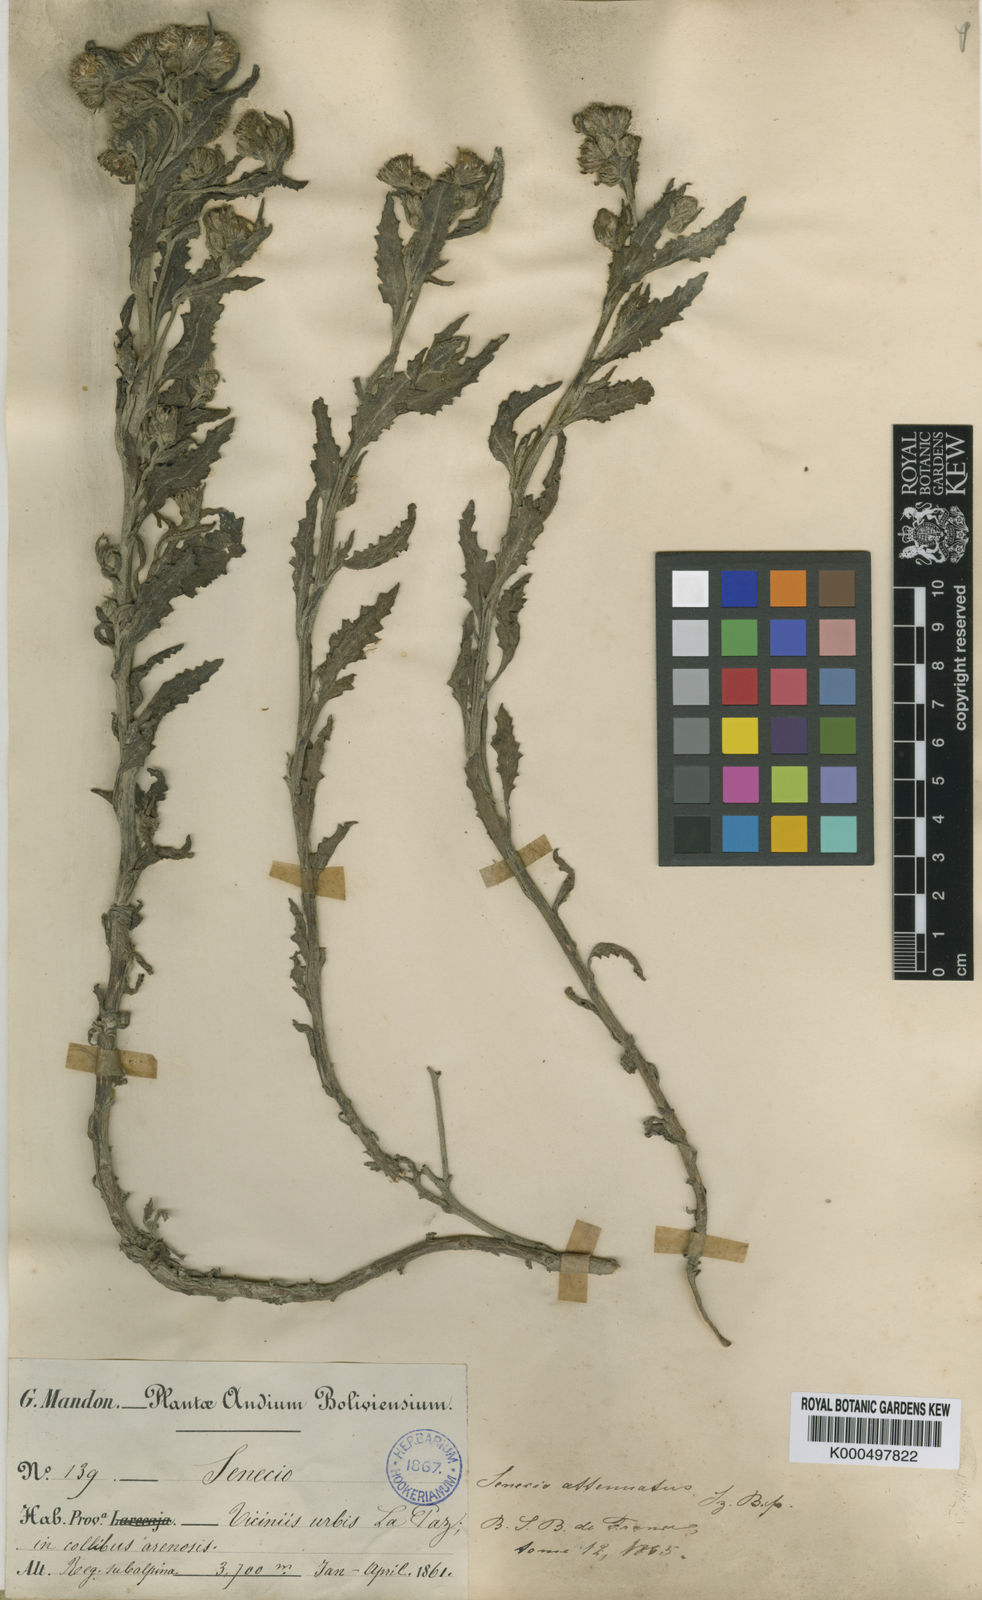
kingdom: Plantae
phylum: Tracheophyta
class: Magnoliopsida
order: Asterales
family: Asteraceae
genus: Senecio
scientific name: Senecio
